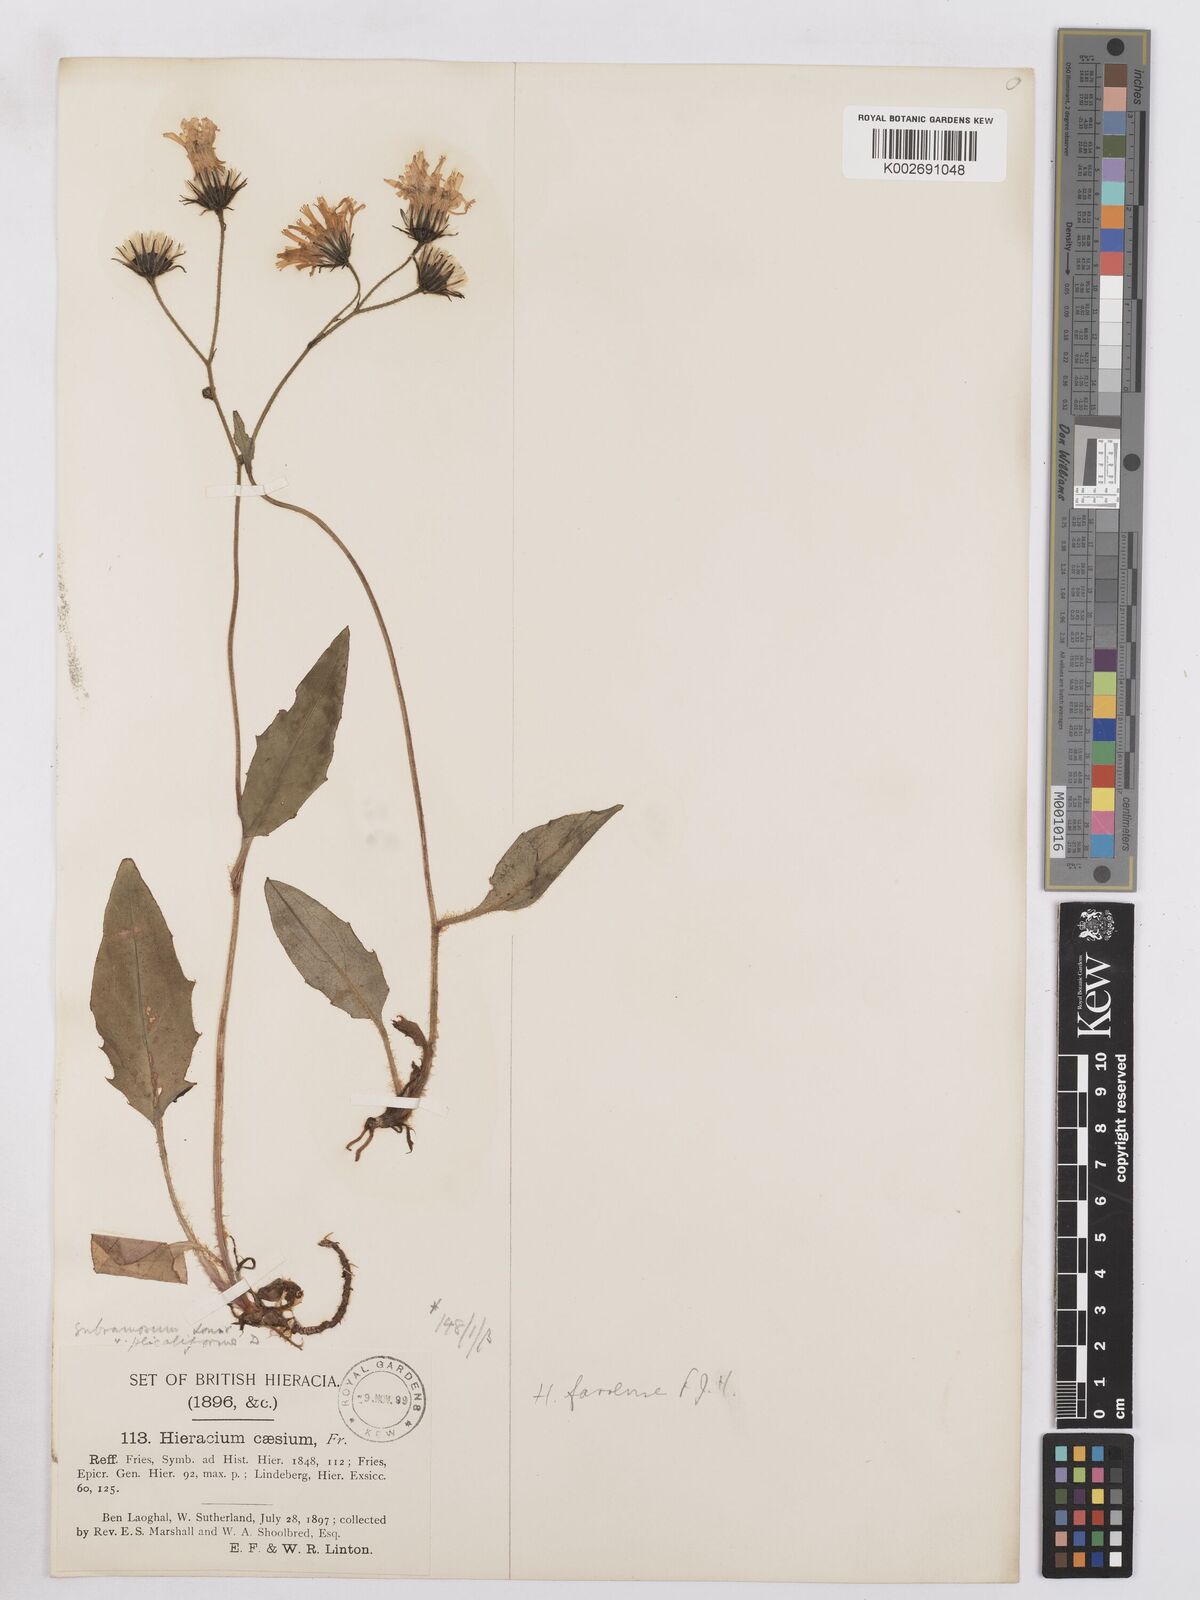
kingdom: Plantae
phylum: Tracheophyta
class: Magnoliopsida
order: Asterales
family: Asteraceae
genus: Hieracium
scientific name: Hieracium farrense
